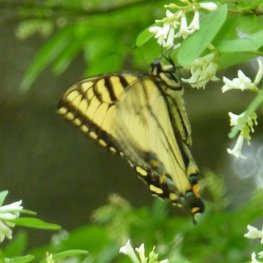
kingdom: Animalia
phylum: Arthropoda
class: Insecta
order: Lepidoptera
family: Papilionidae
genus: Pterourus
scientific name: Pterourus glaucus
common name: Eastern Tiger Swallowtail
